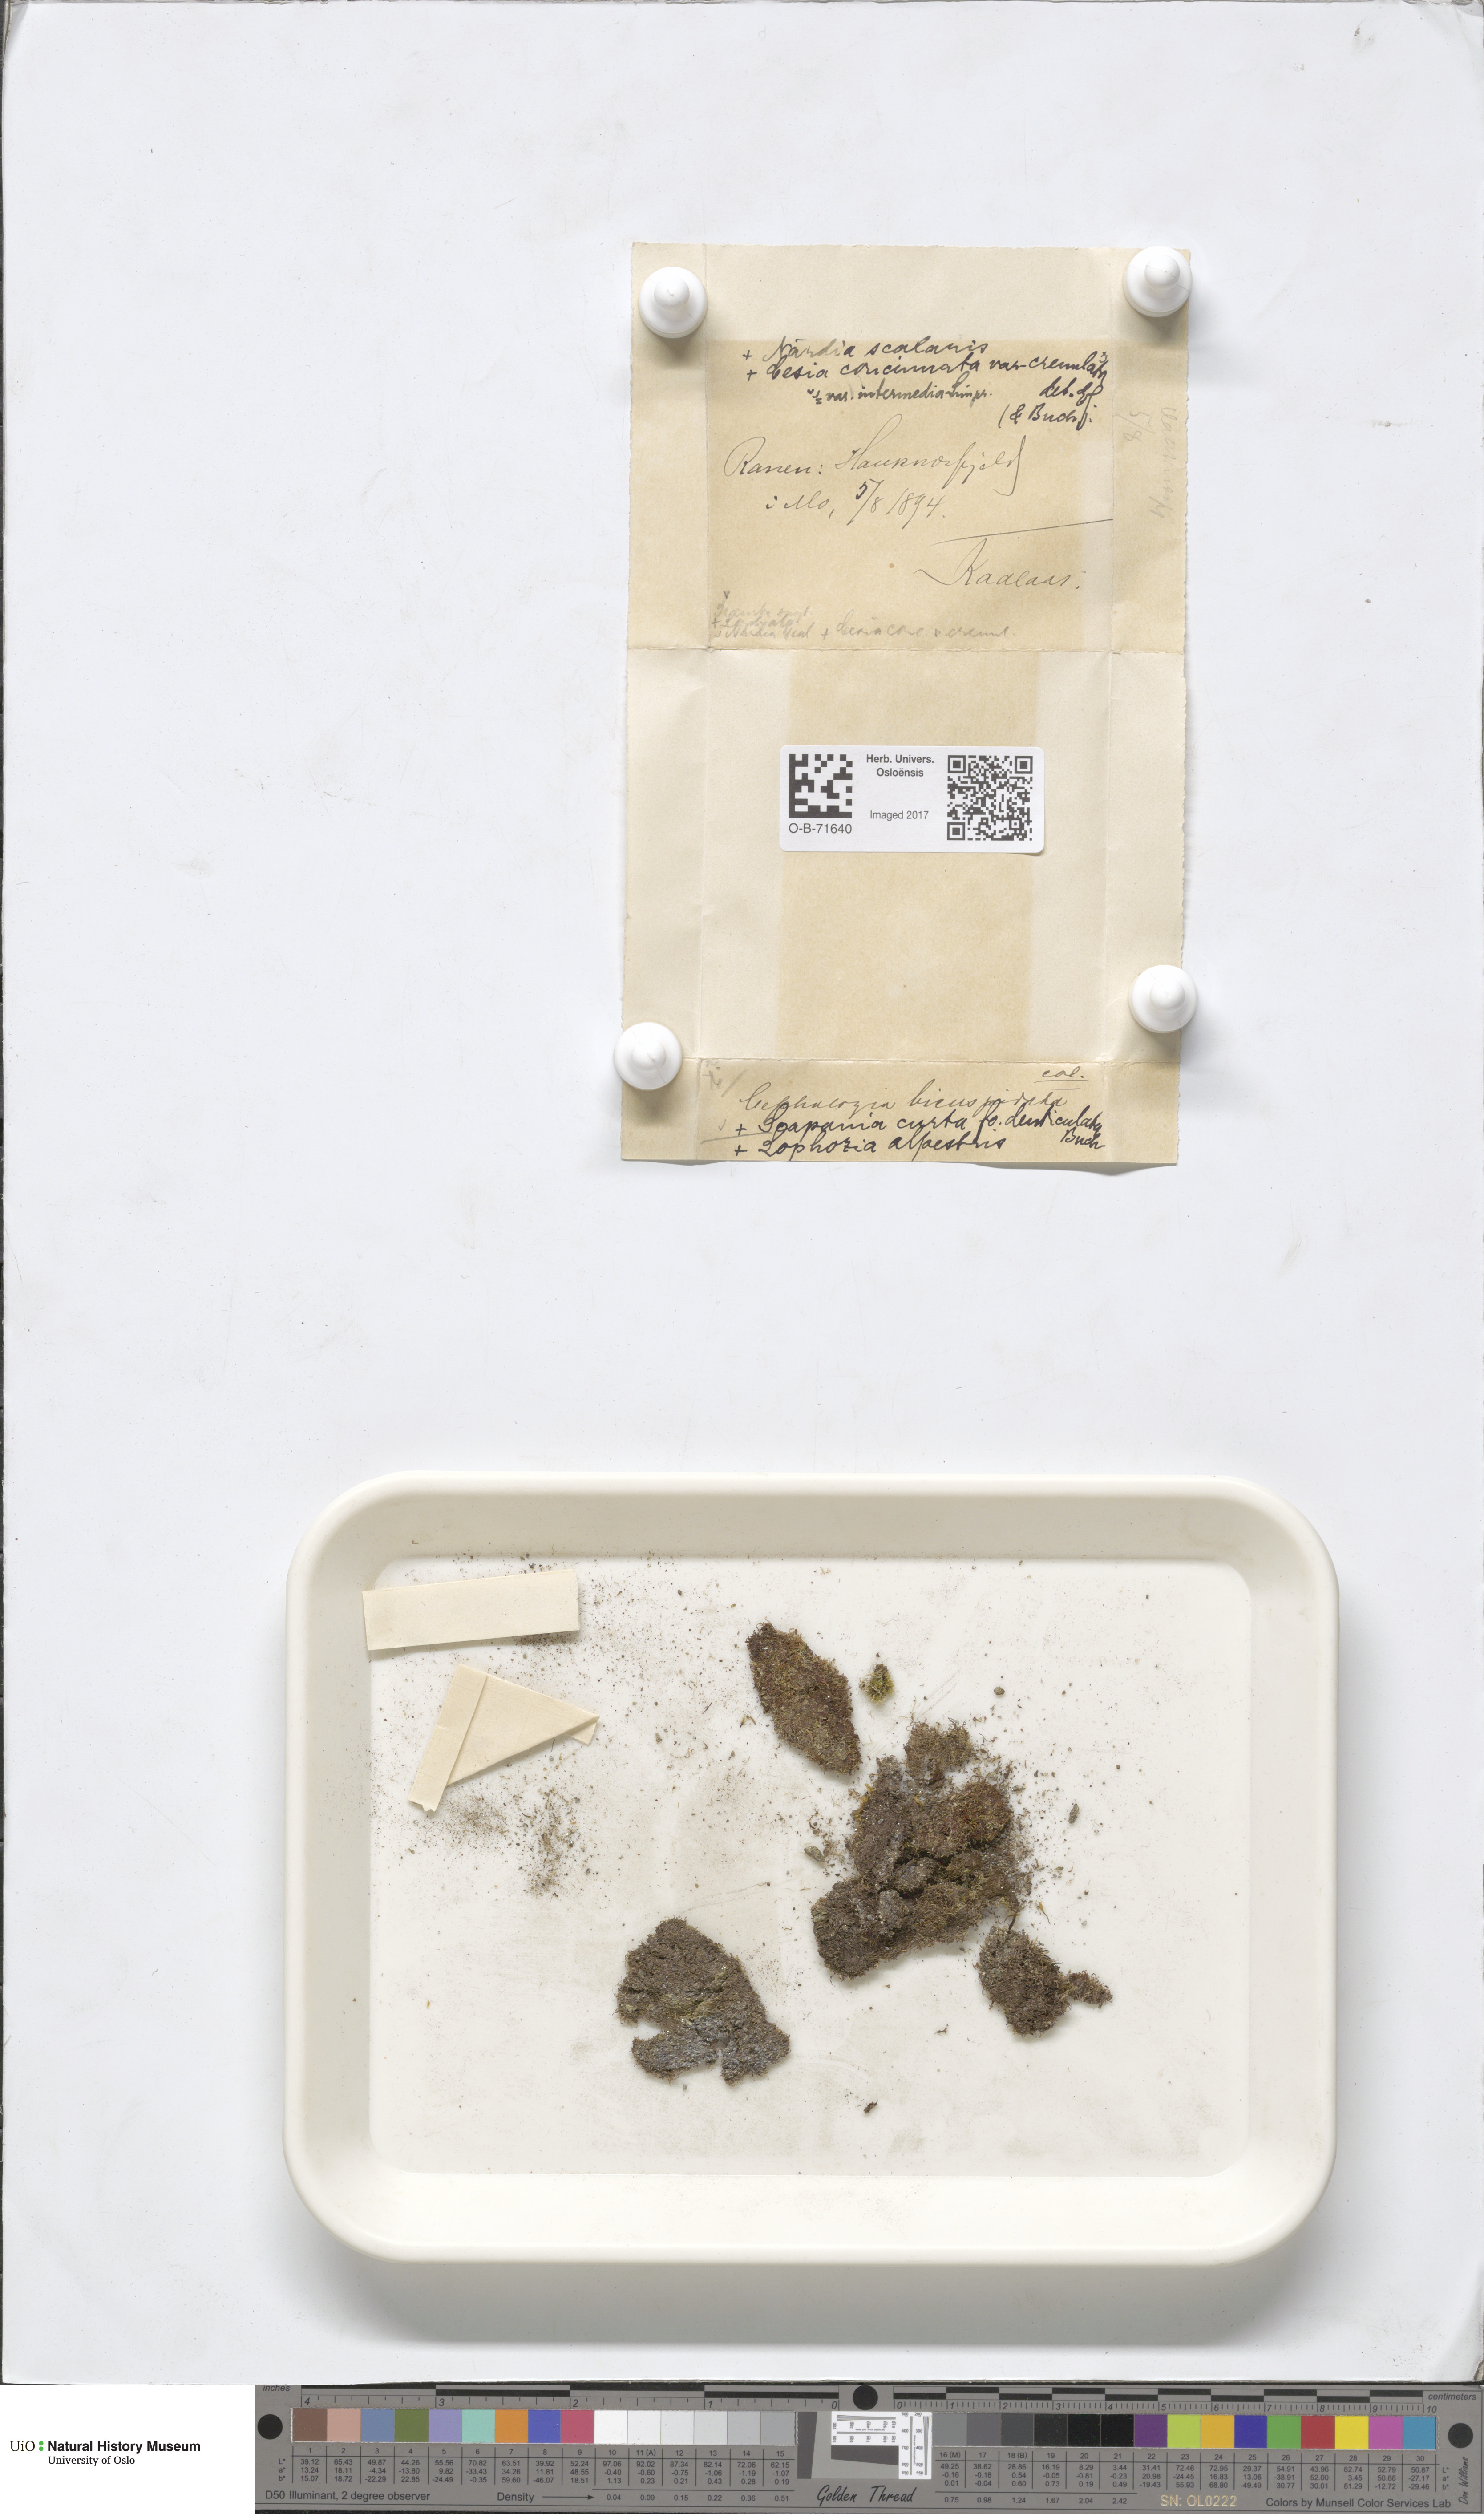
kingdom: Plantae
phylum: Marchantiophyta
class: Jungermanniopsida
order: Jungermanniales
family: Cephaloziaceae
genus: Cephalozia
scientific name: Cephalozia bicuspidata
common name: Two-horned pincerwort
